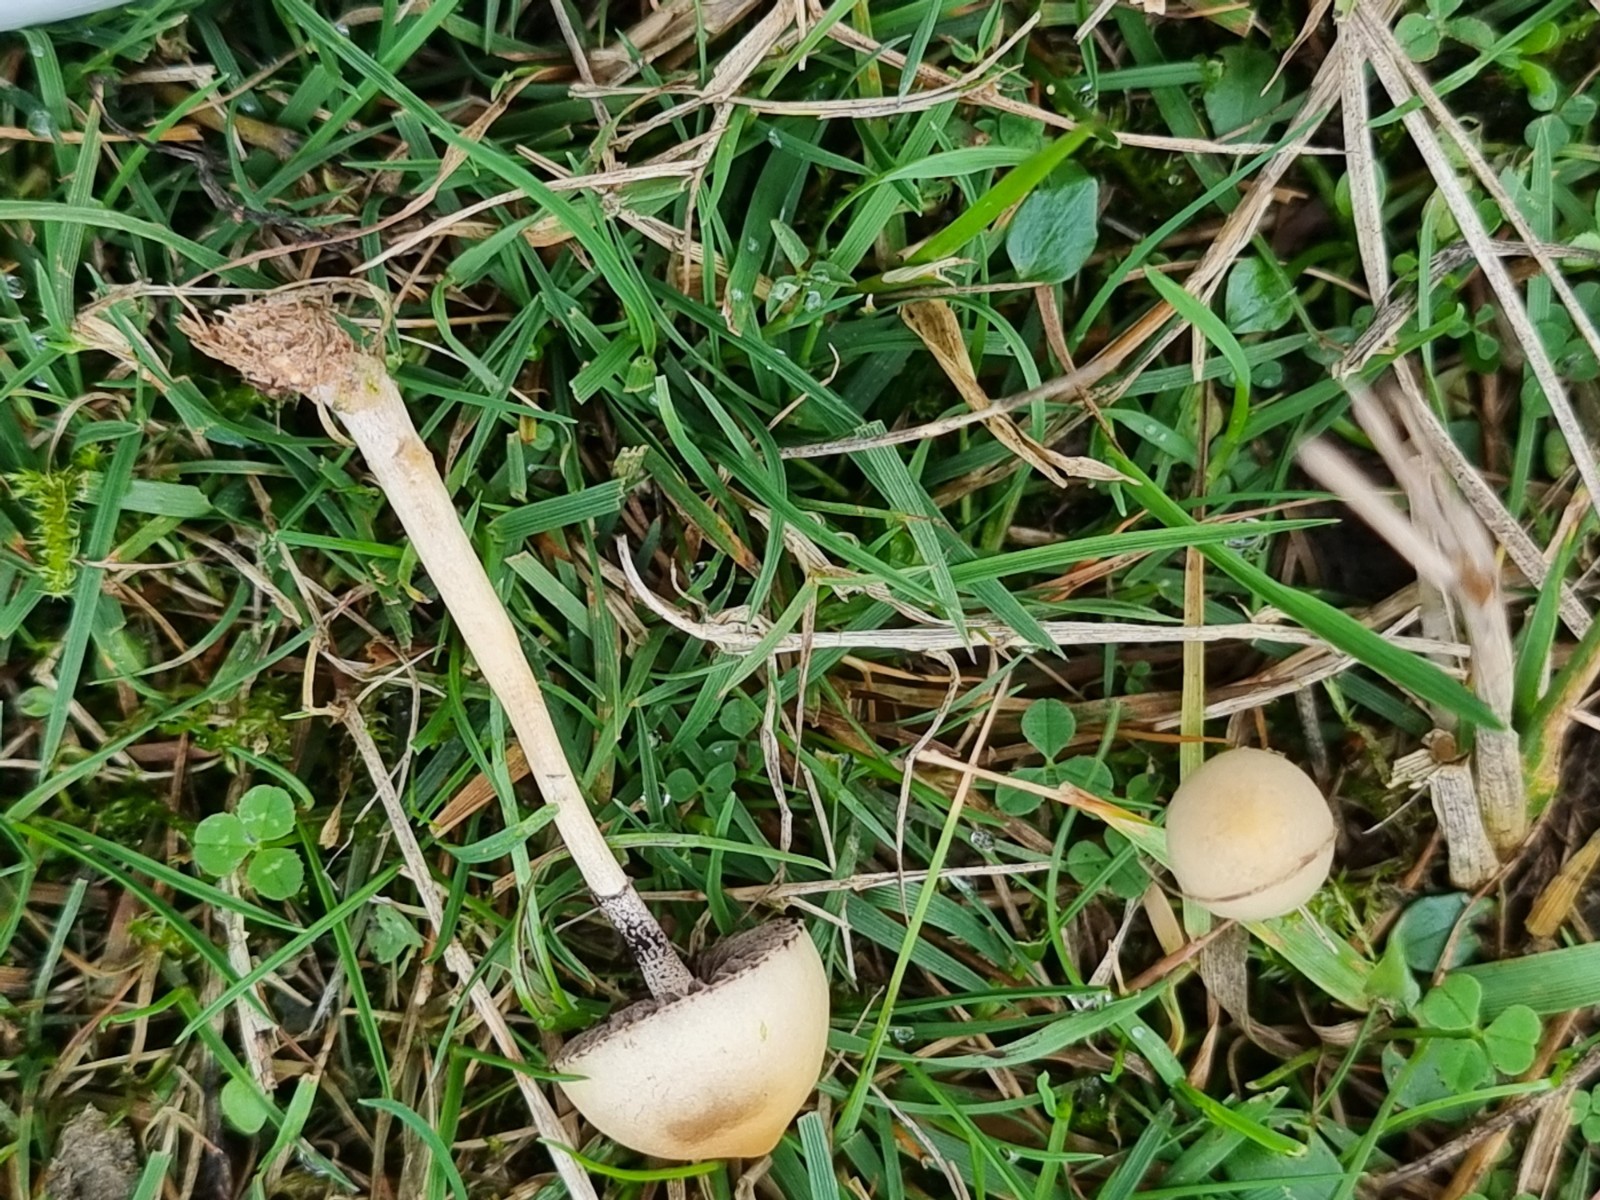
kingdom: Fungi
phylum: Basidiomycota
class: Agaricomycetes
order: Agaricales
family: Strophariaceae
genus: Protostropharia
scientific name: Protostropharia semiglobata
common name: halvkugleformet bredblad
